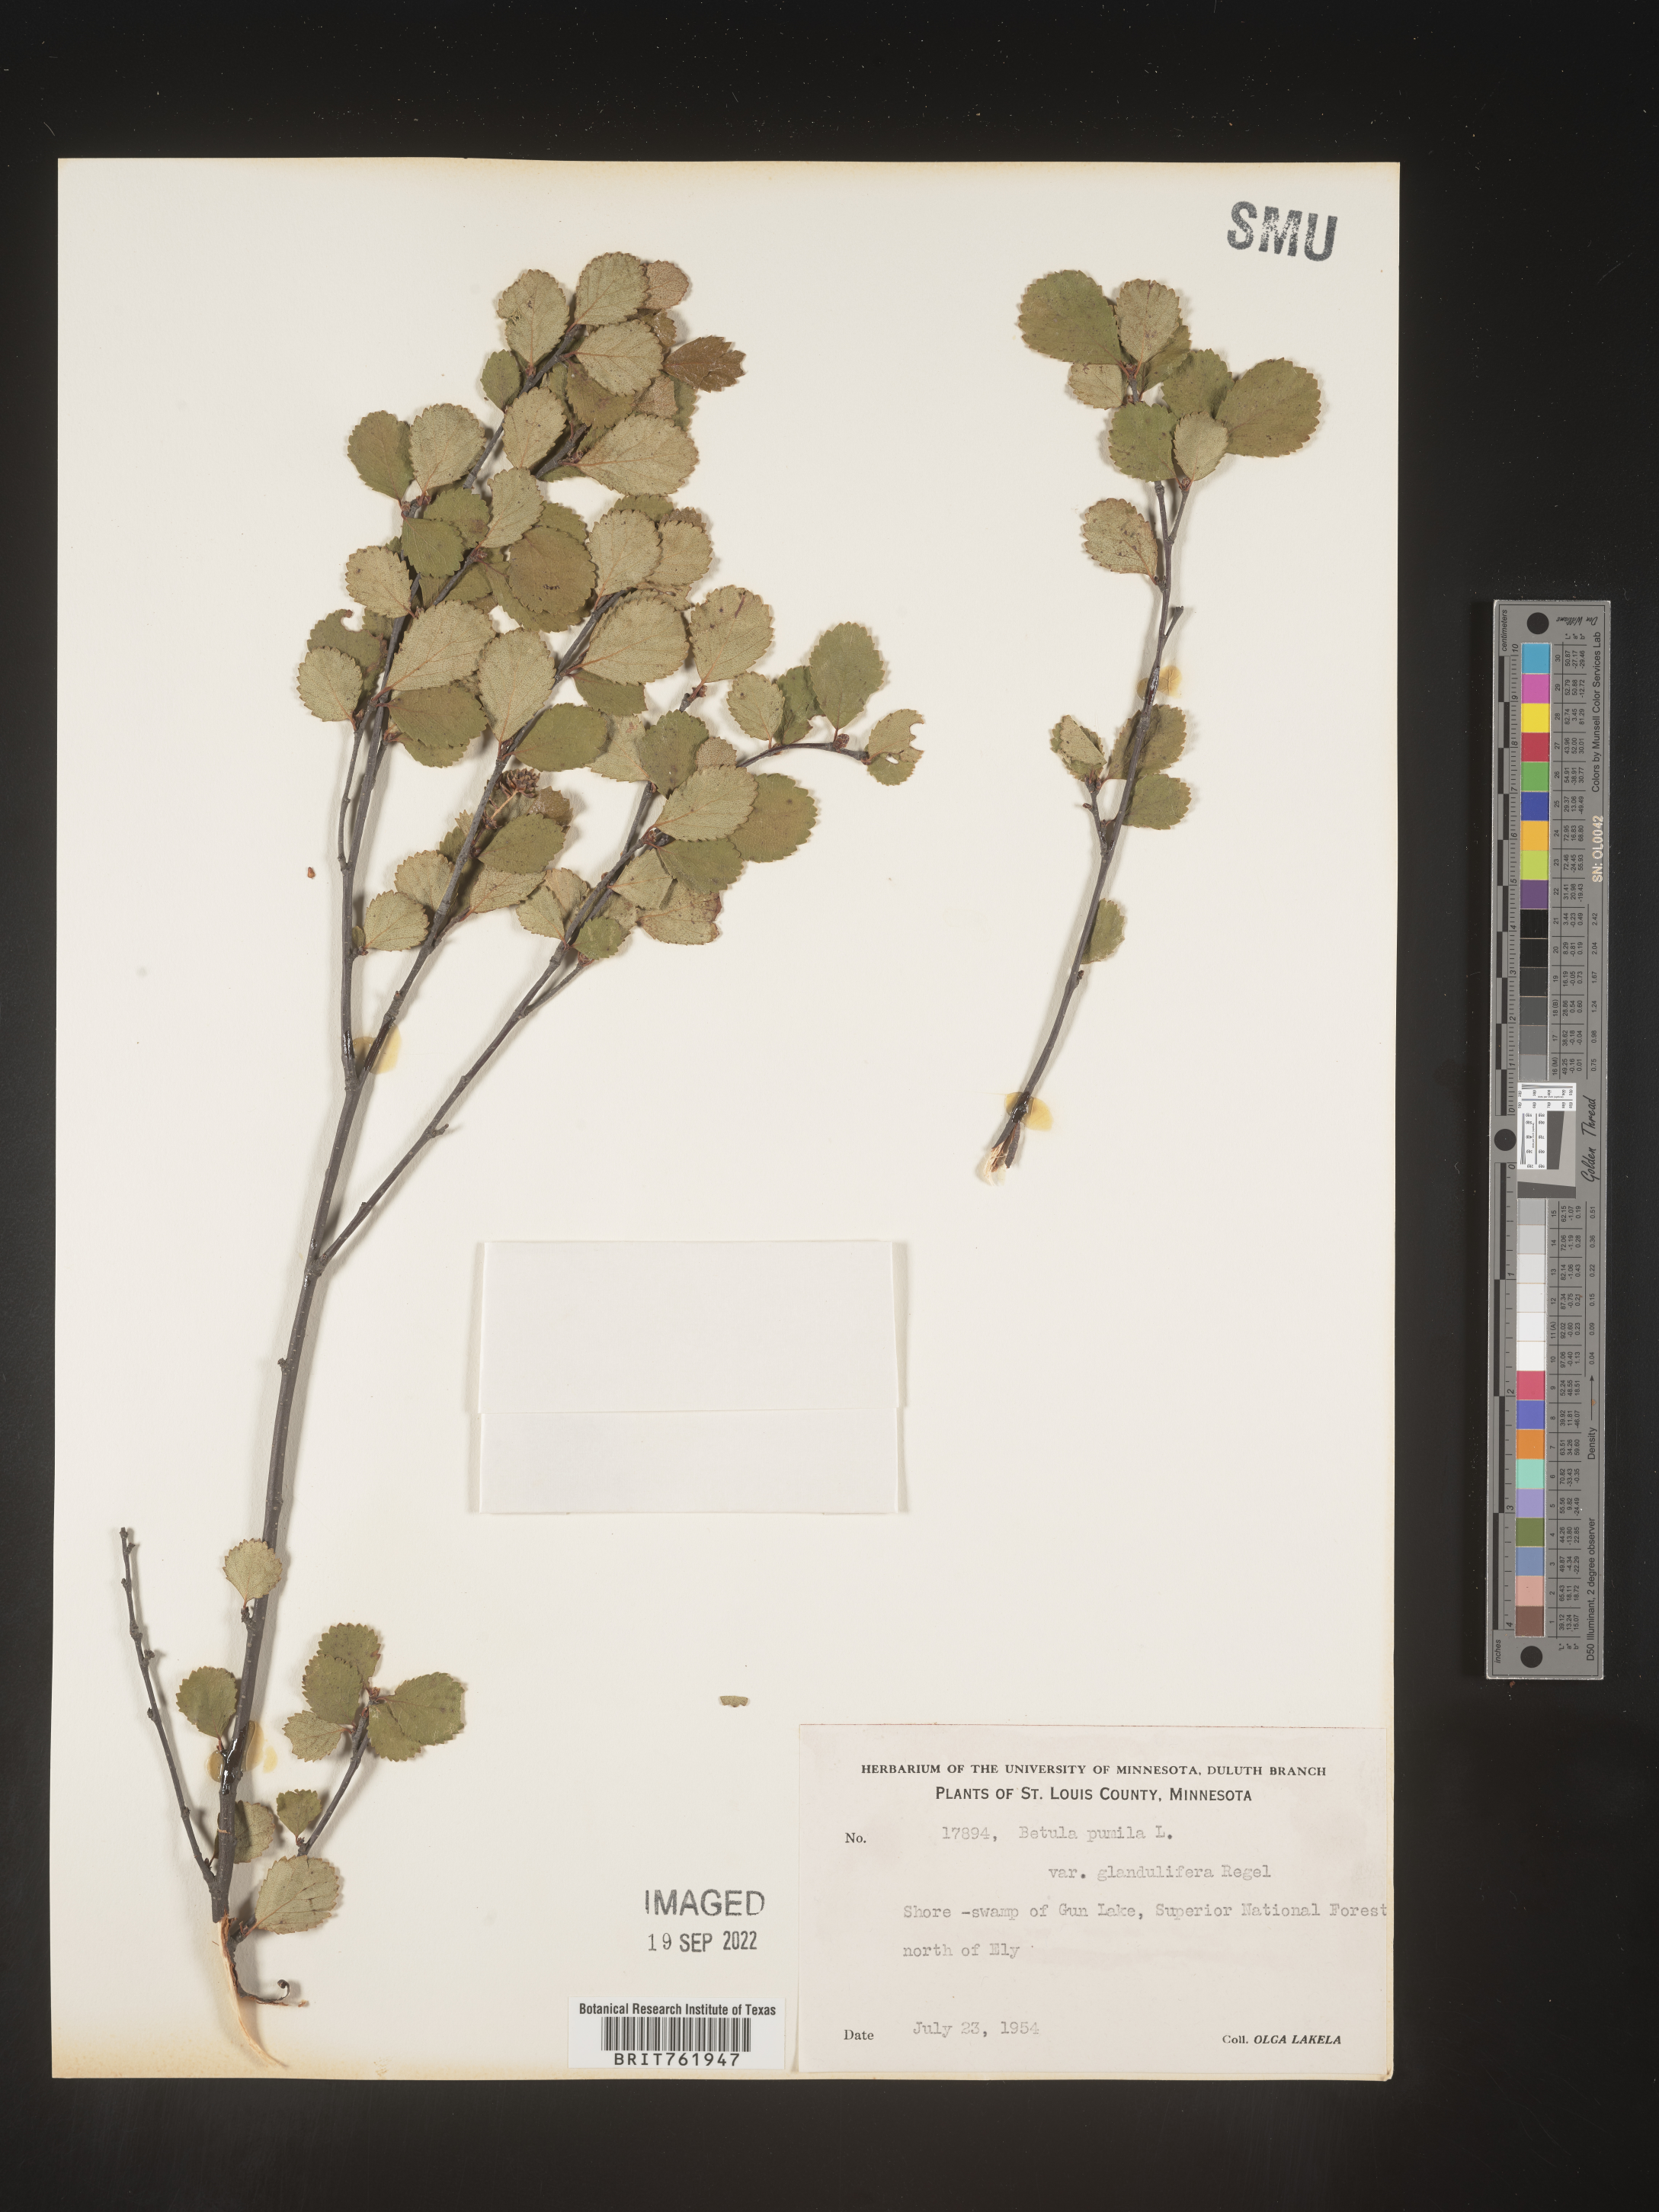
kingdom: Plantae
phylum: Tracheophyta
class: Magnoliopsida
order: Fagales
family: Betulaceae
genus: Betula
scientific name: Betula pumila
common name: Bog birch
